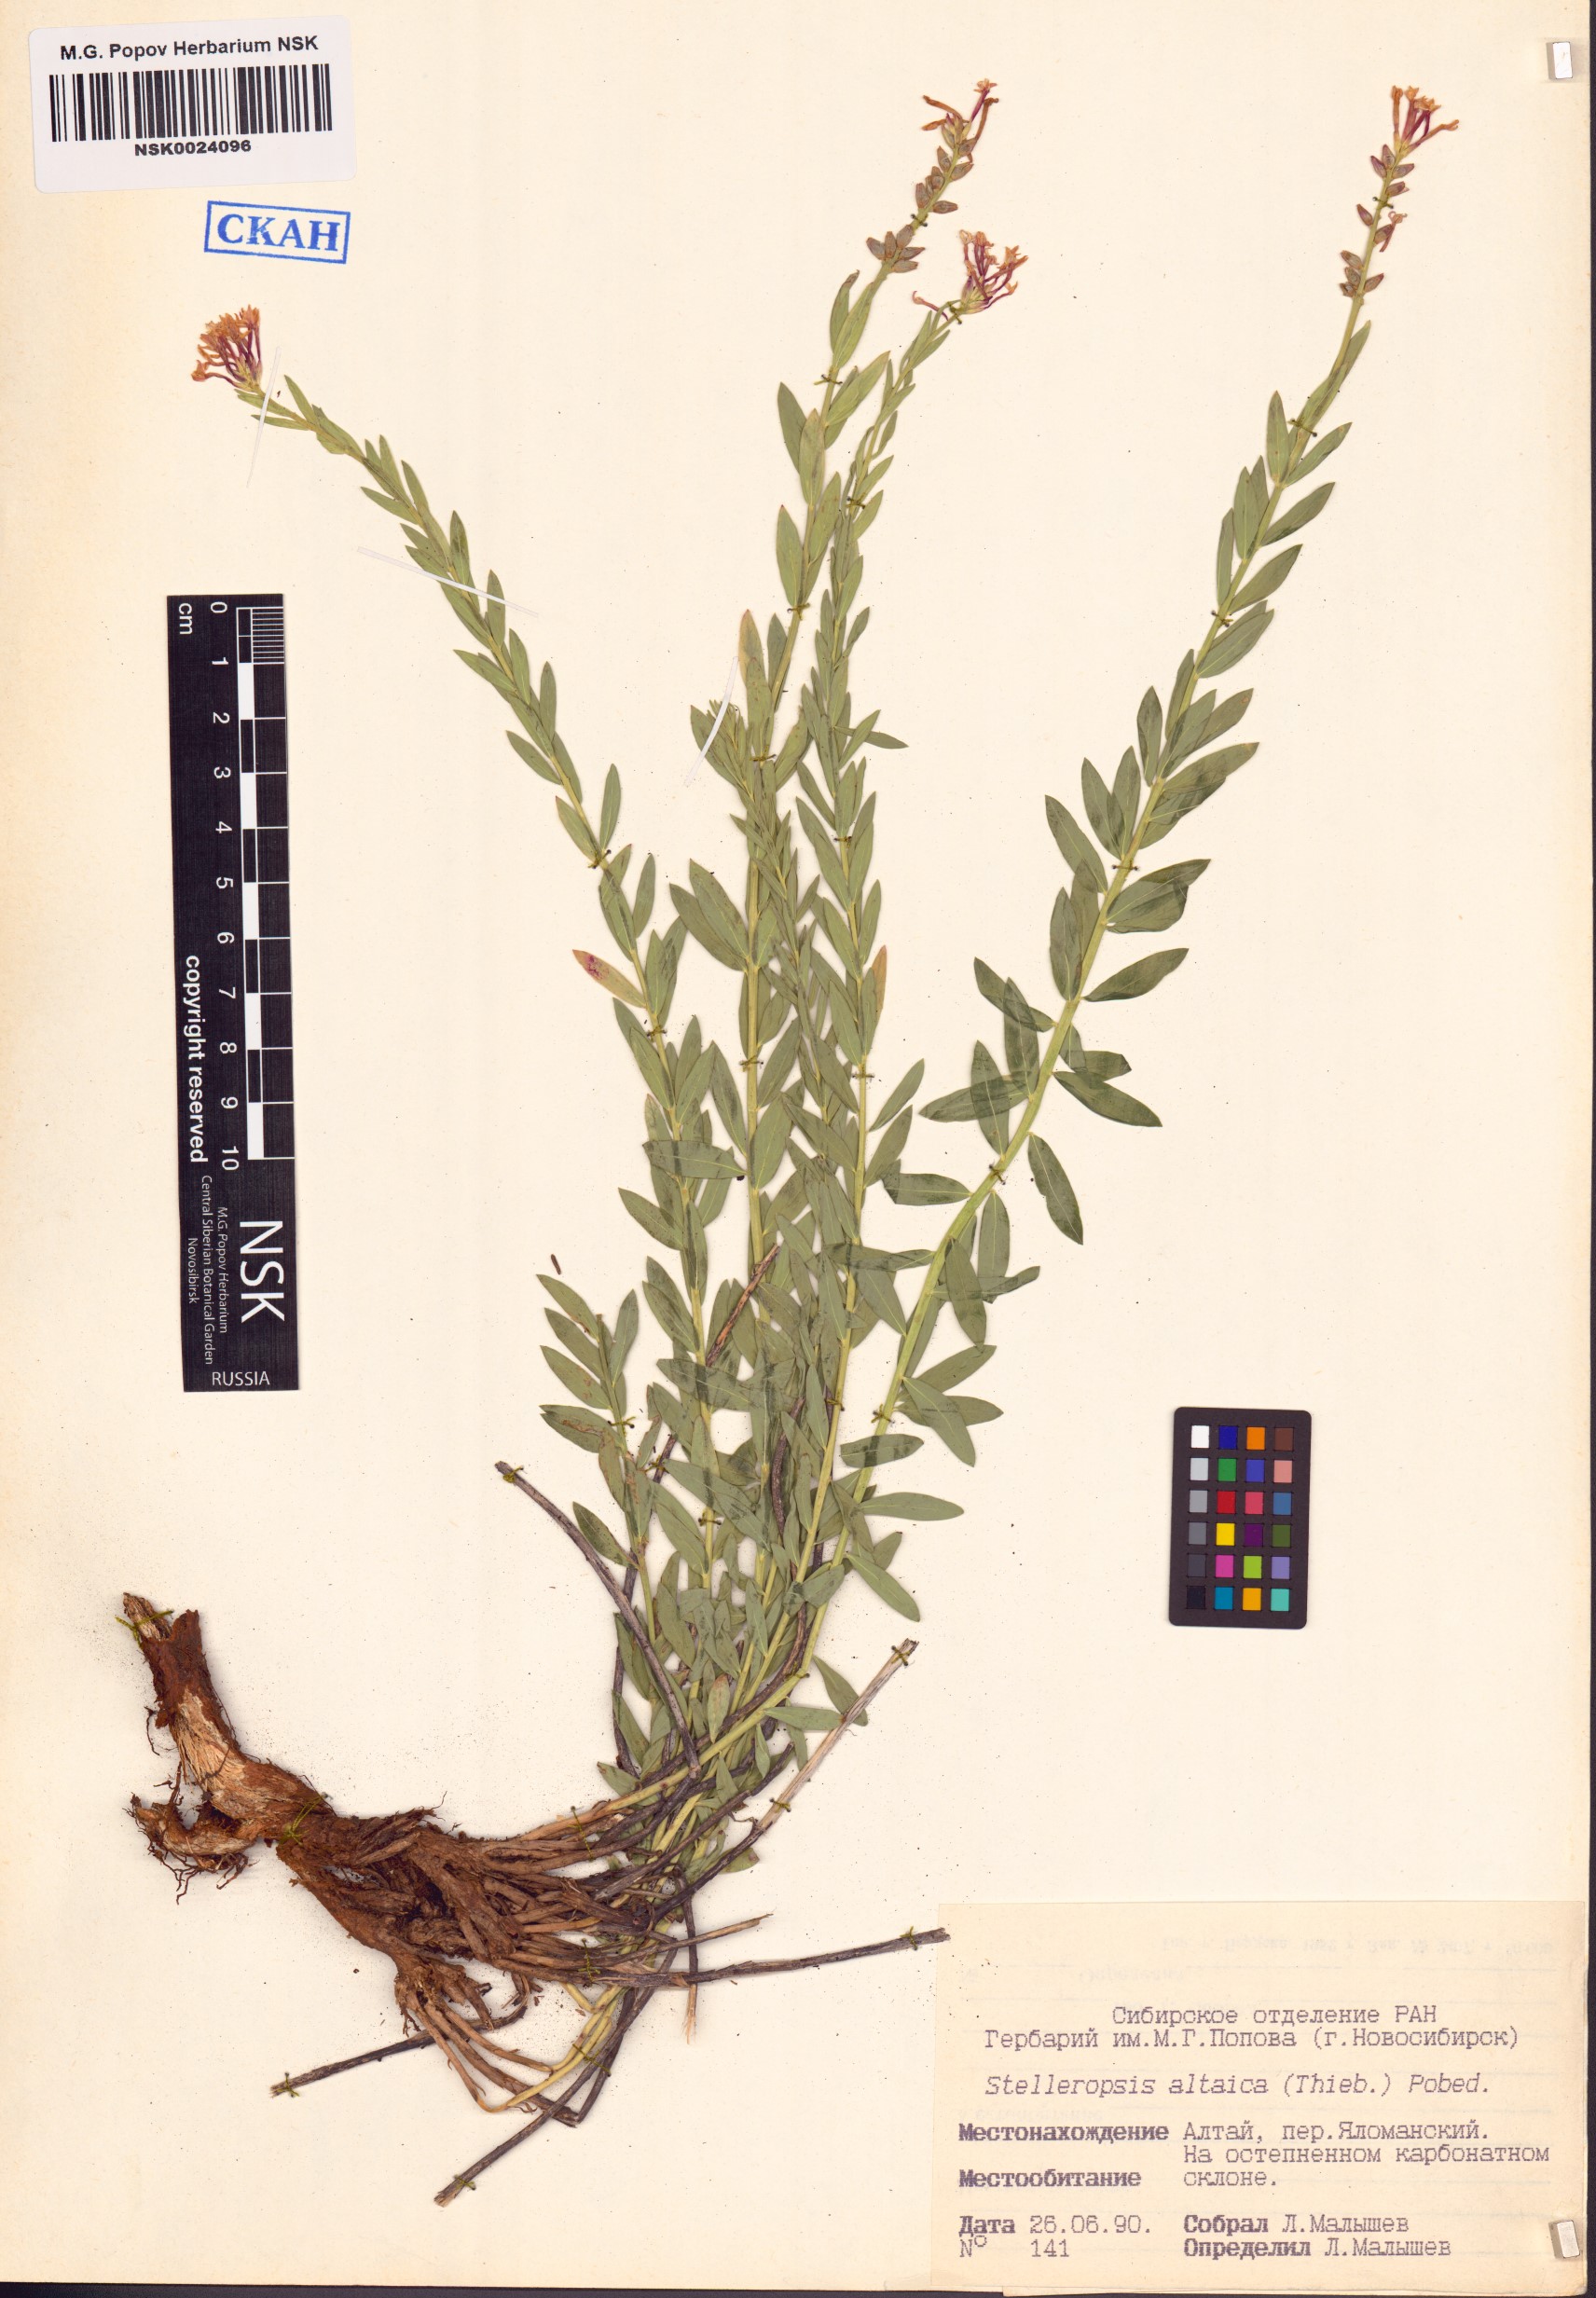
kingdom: Plantae
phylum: Tracheophyta
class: Magnoliopsida
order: Malvales
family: Thymelaeaceae
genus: Diarthron
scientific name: Diarthron altaicum
